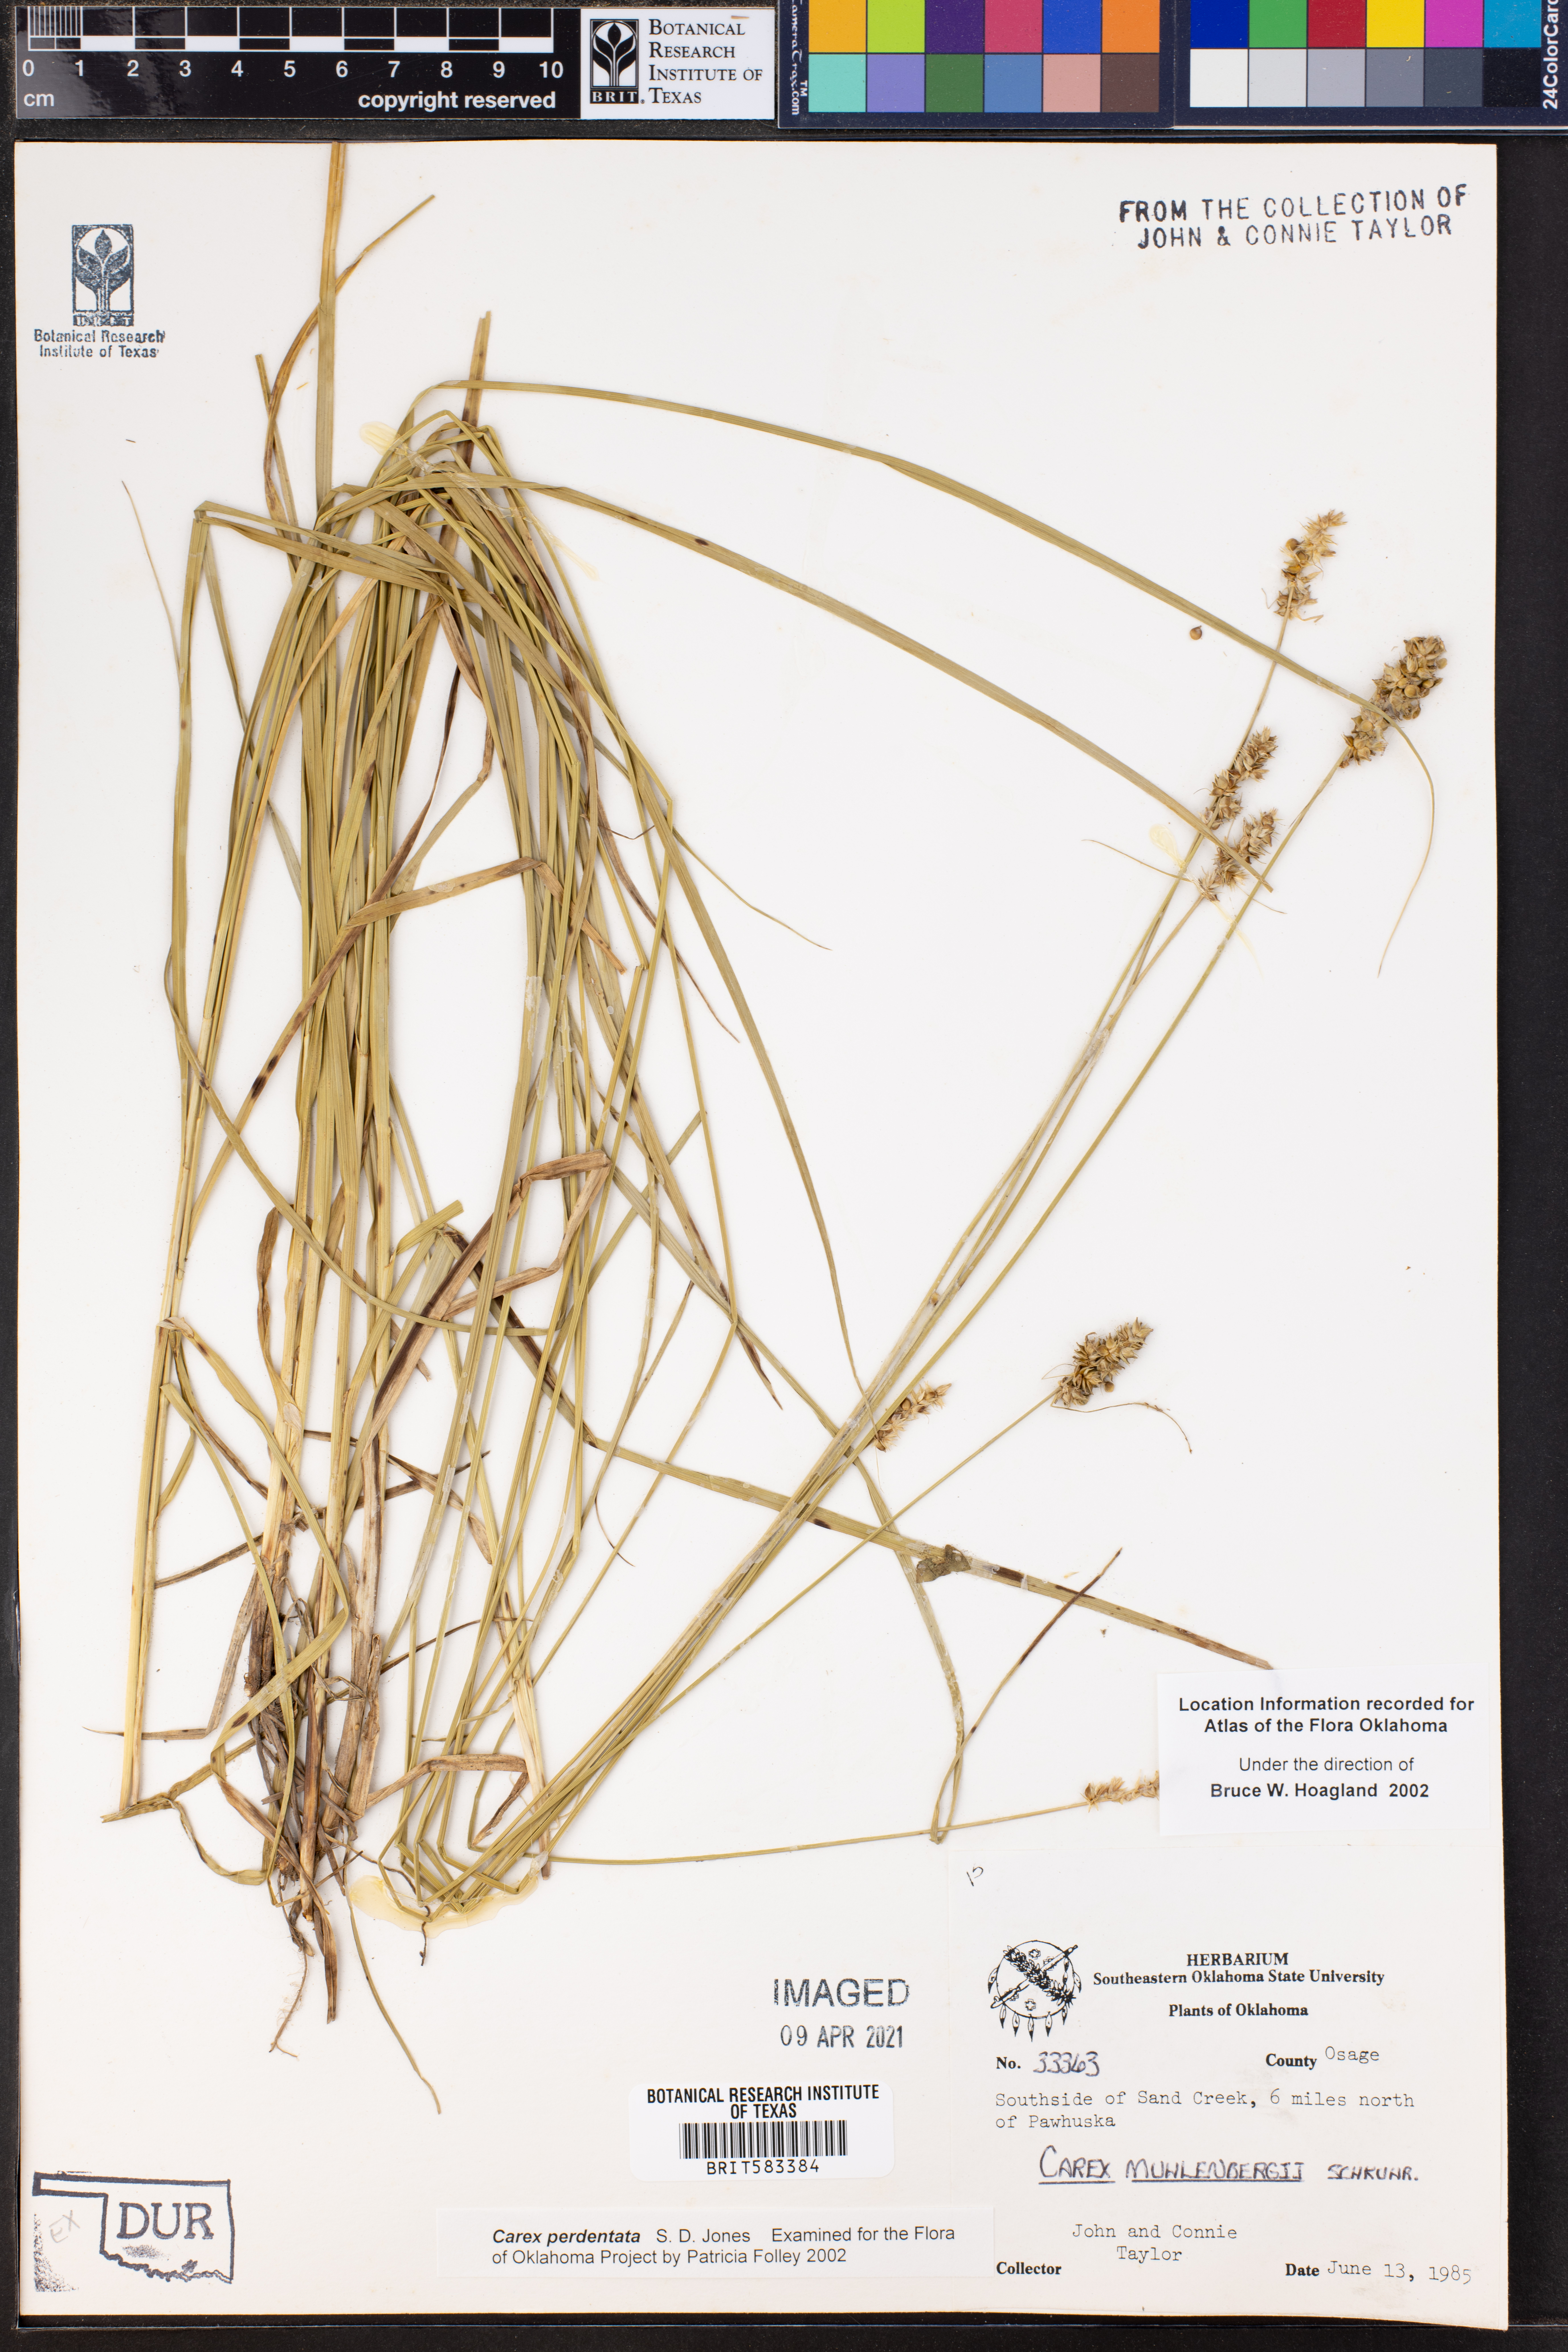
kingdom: Plantae
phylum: Tracheophyta
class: Liliopsida
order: Poales
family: Cyperaceae
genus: Carex
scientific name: Carex perdentata
